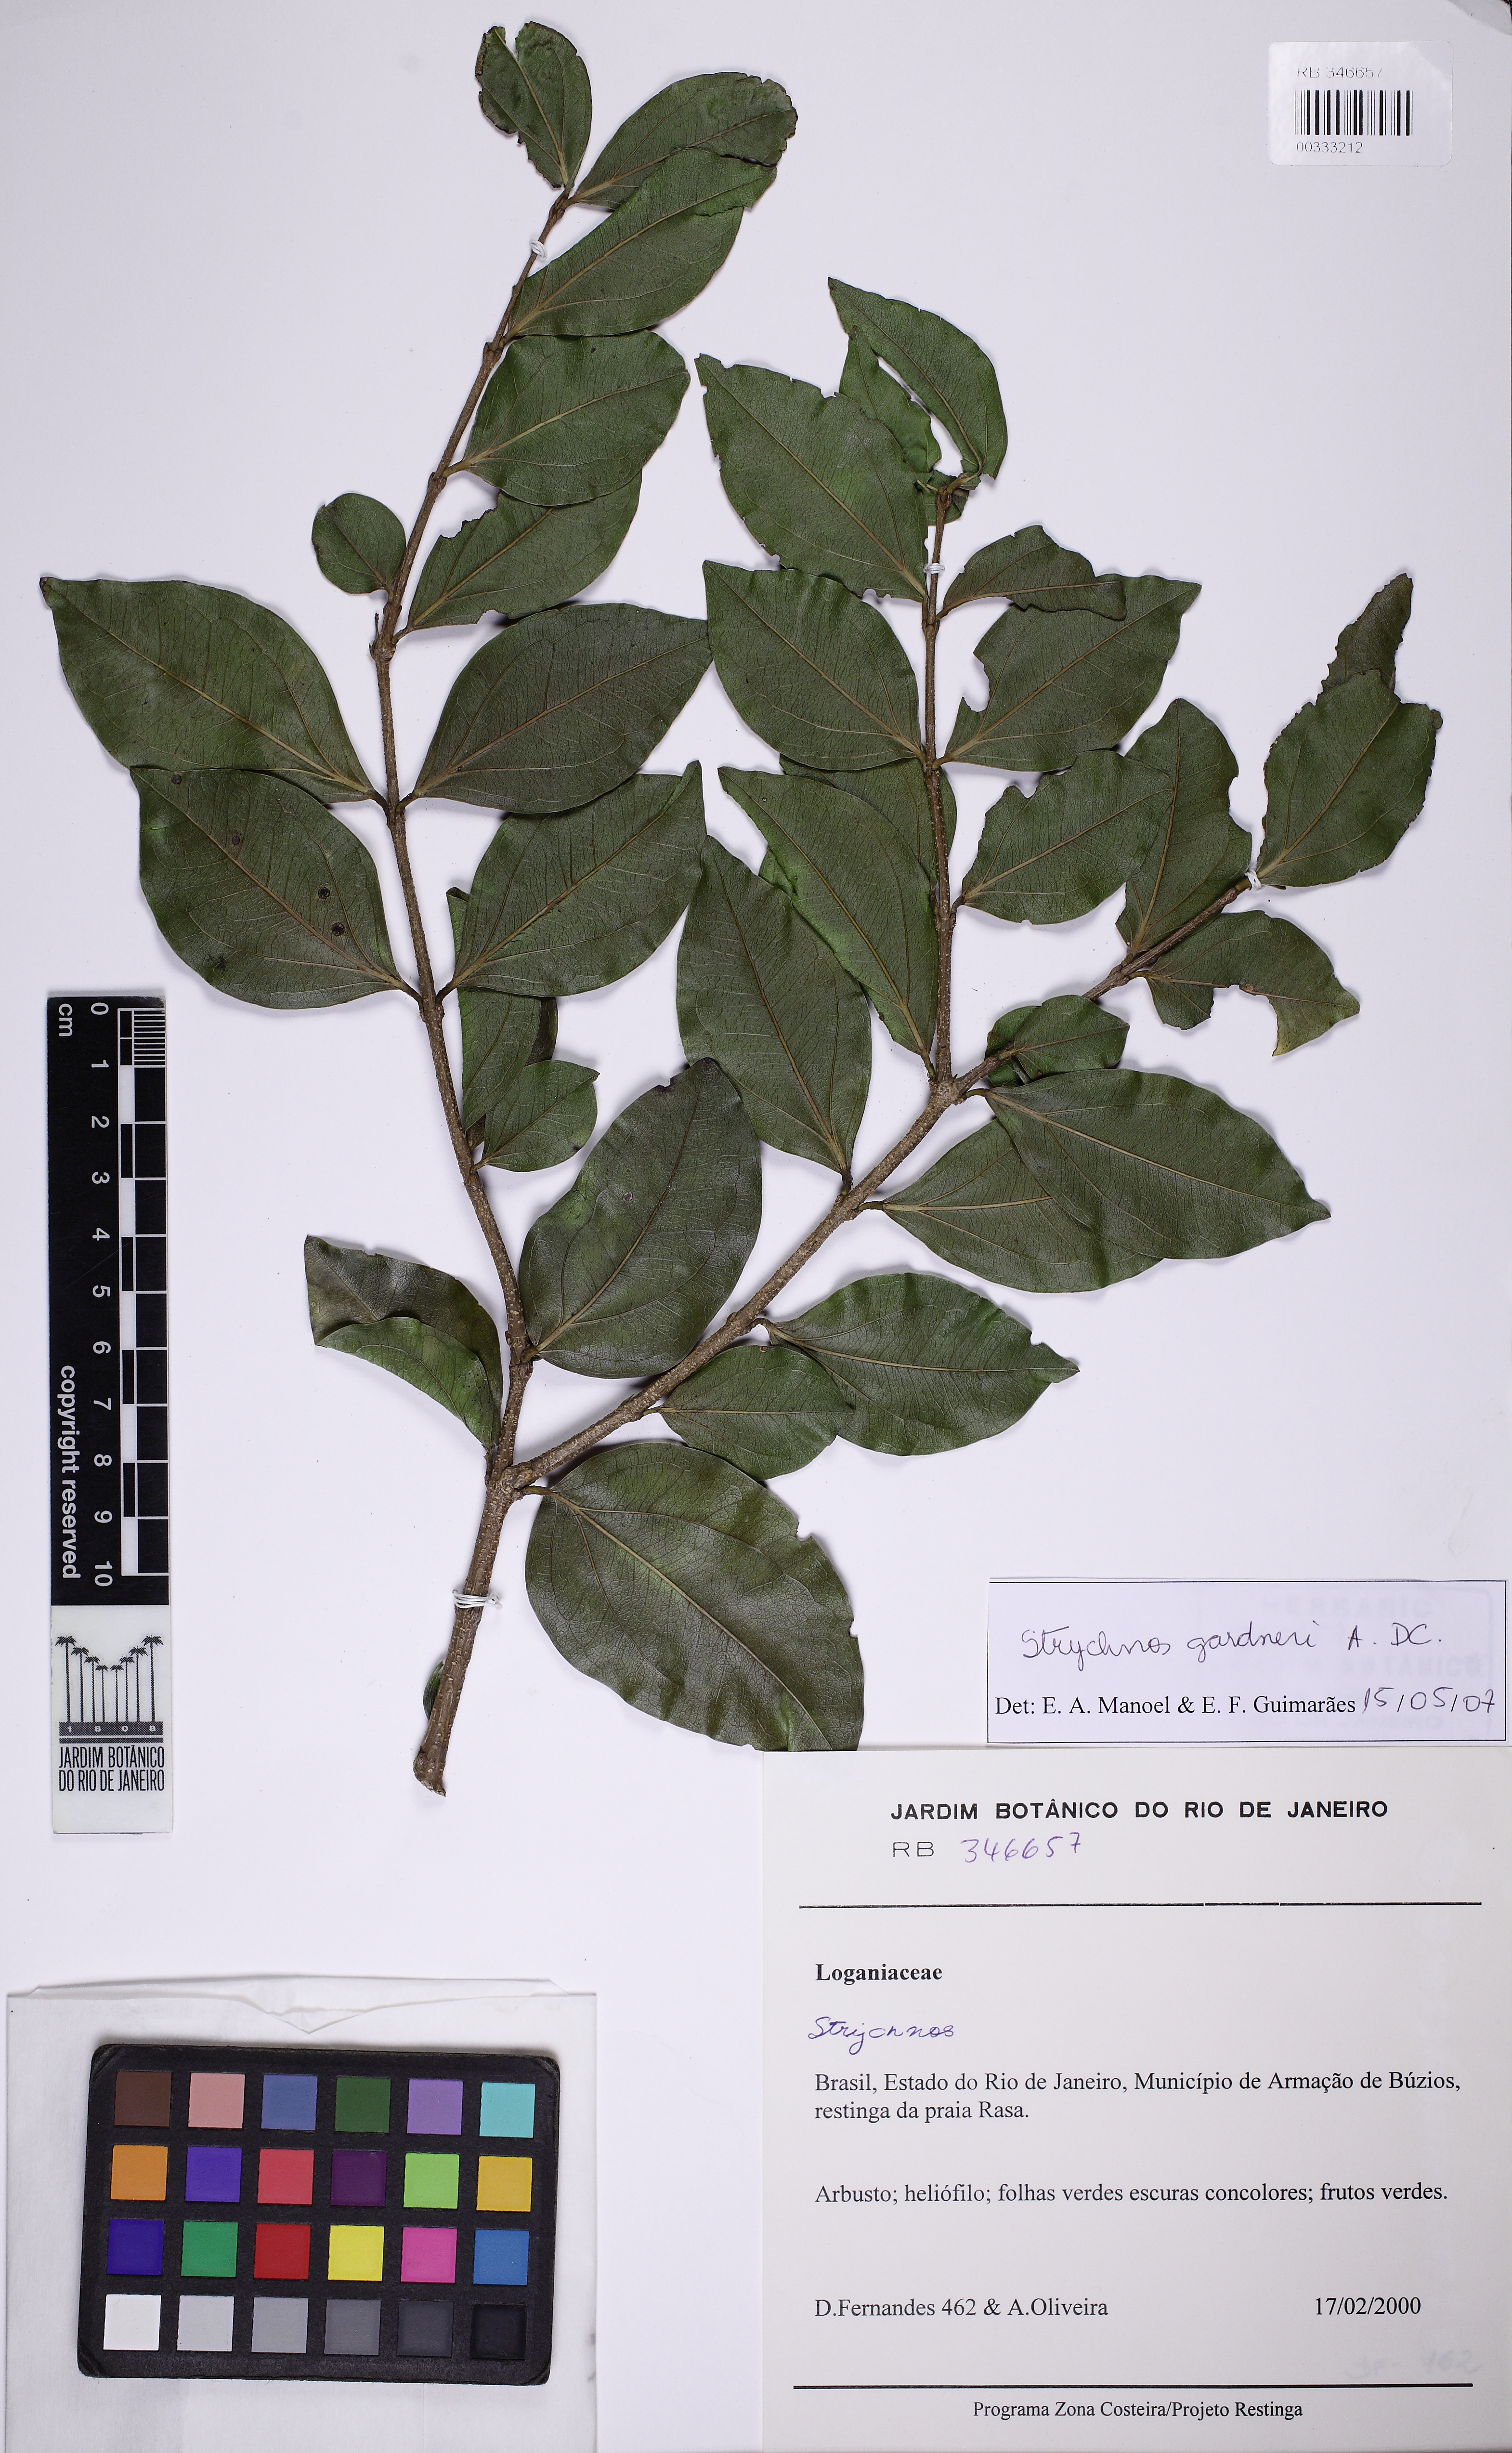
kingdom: Plantae
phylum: Tracheophyta
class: Magnoliopsida
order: Gentianales
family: Loganiaceae
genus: Strychnos
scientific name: Strychnos gardneri
